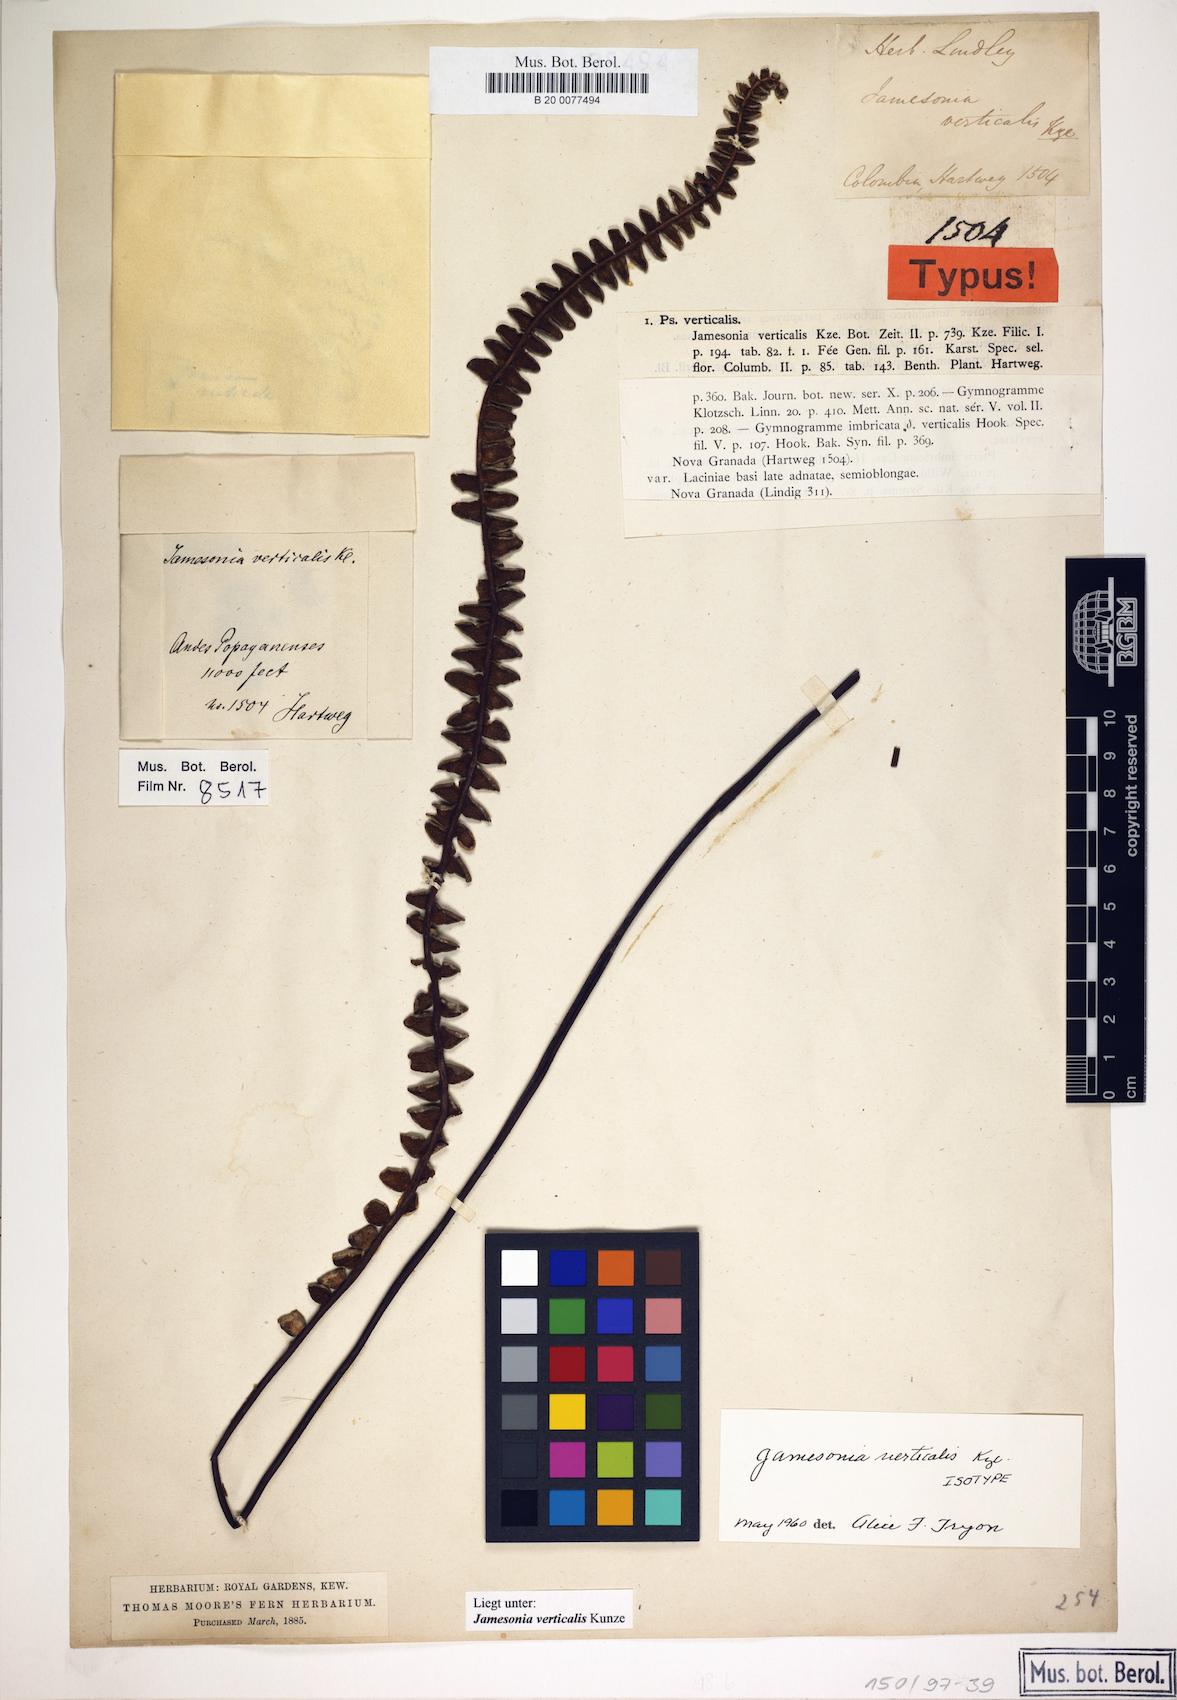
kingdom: Plantae
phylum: Tracheophyta
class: Polypodiopsida
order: Polypodiales
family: Pteridaceae
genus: Jamesonia
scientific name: Jamesonia verticalis
